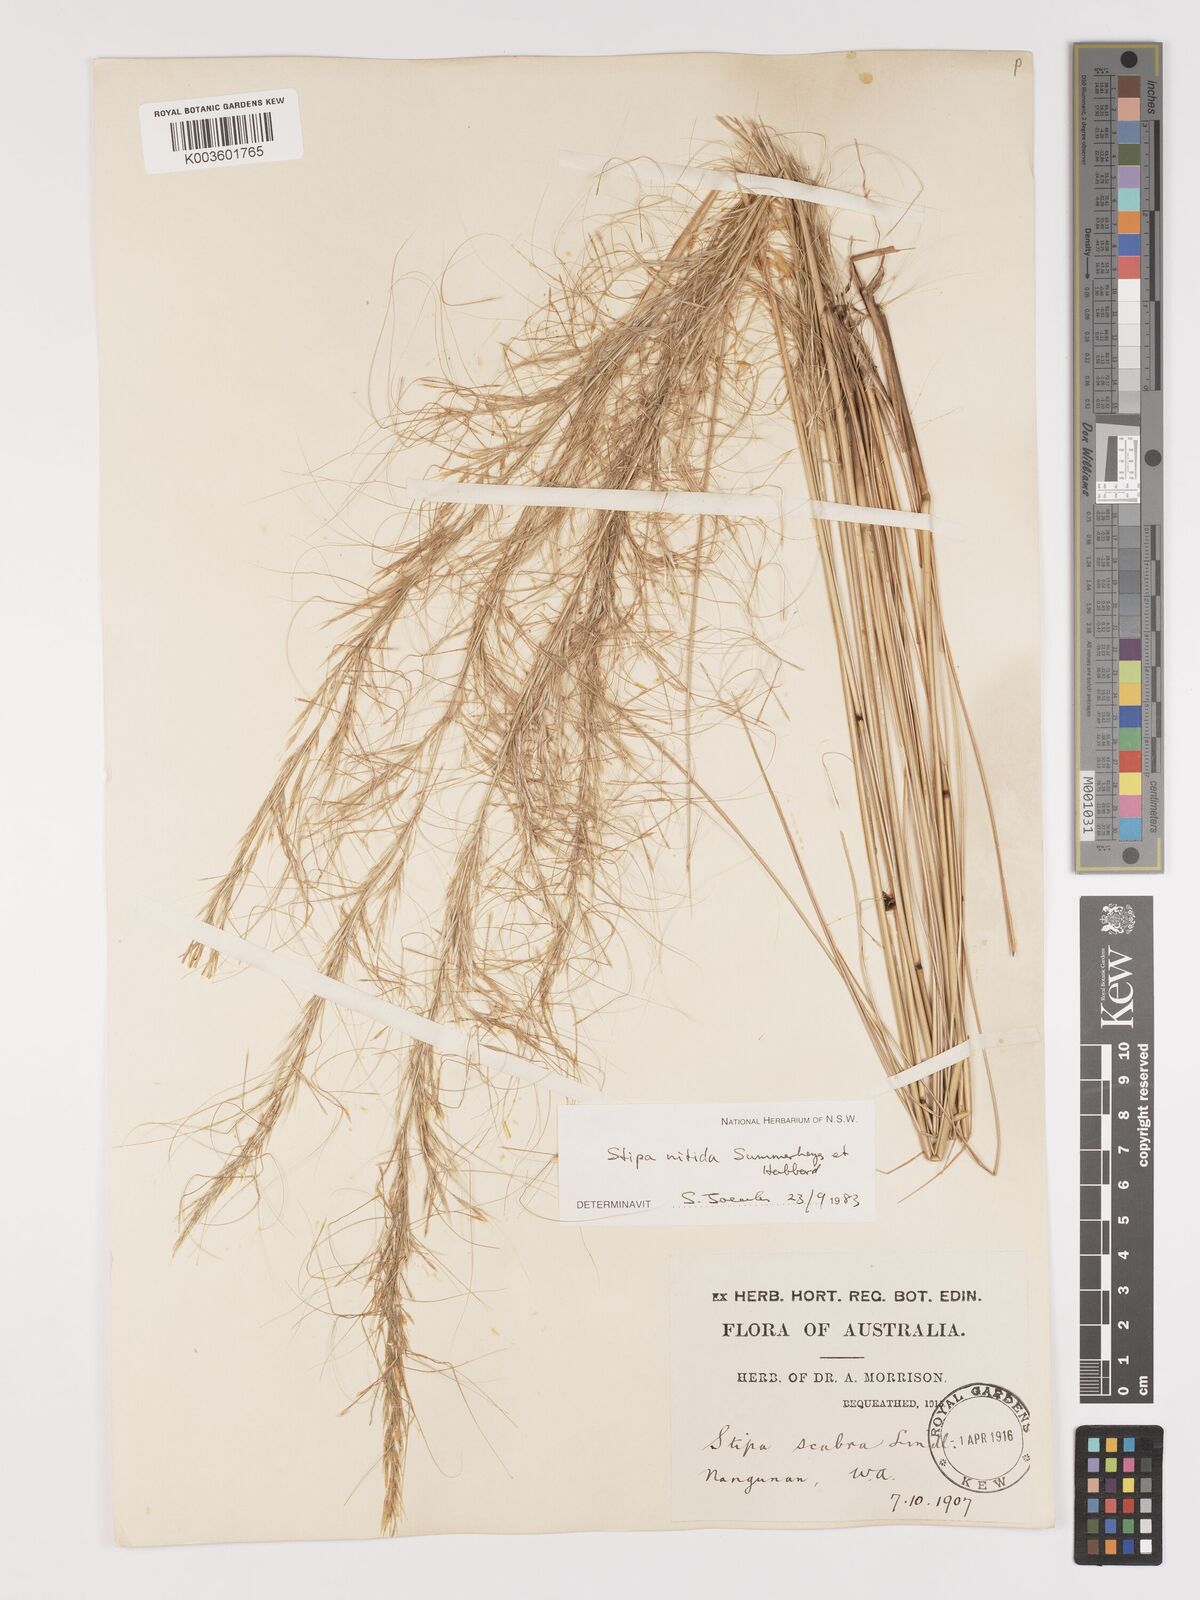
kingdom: Plantae
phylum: Tracheophyta
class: Liliopsida
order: Poales
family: Poaceae
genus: Austrostipa
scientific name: Austrostipa nitida
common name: Balcarra grass
